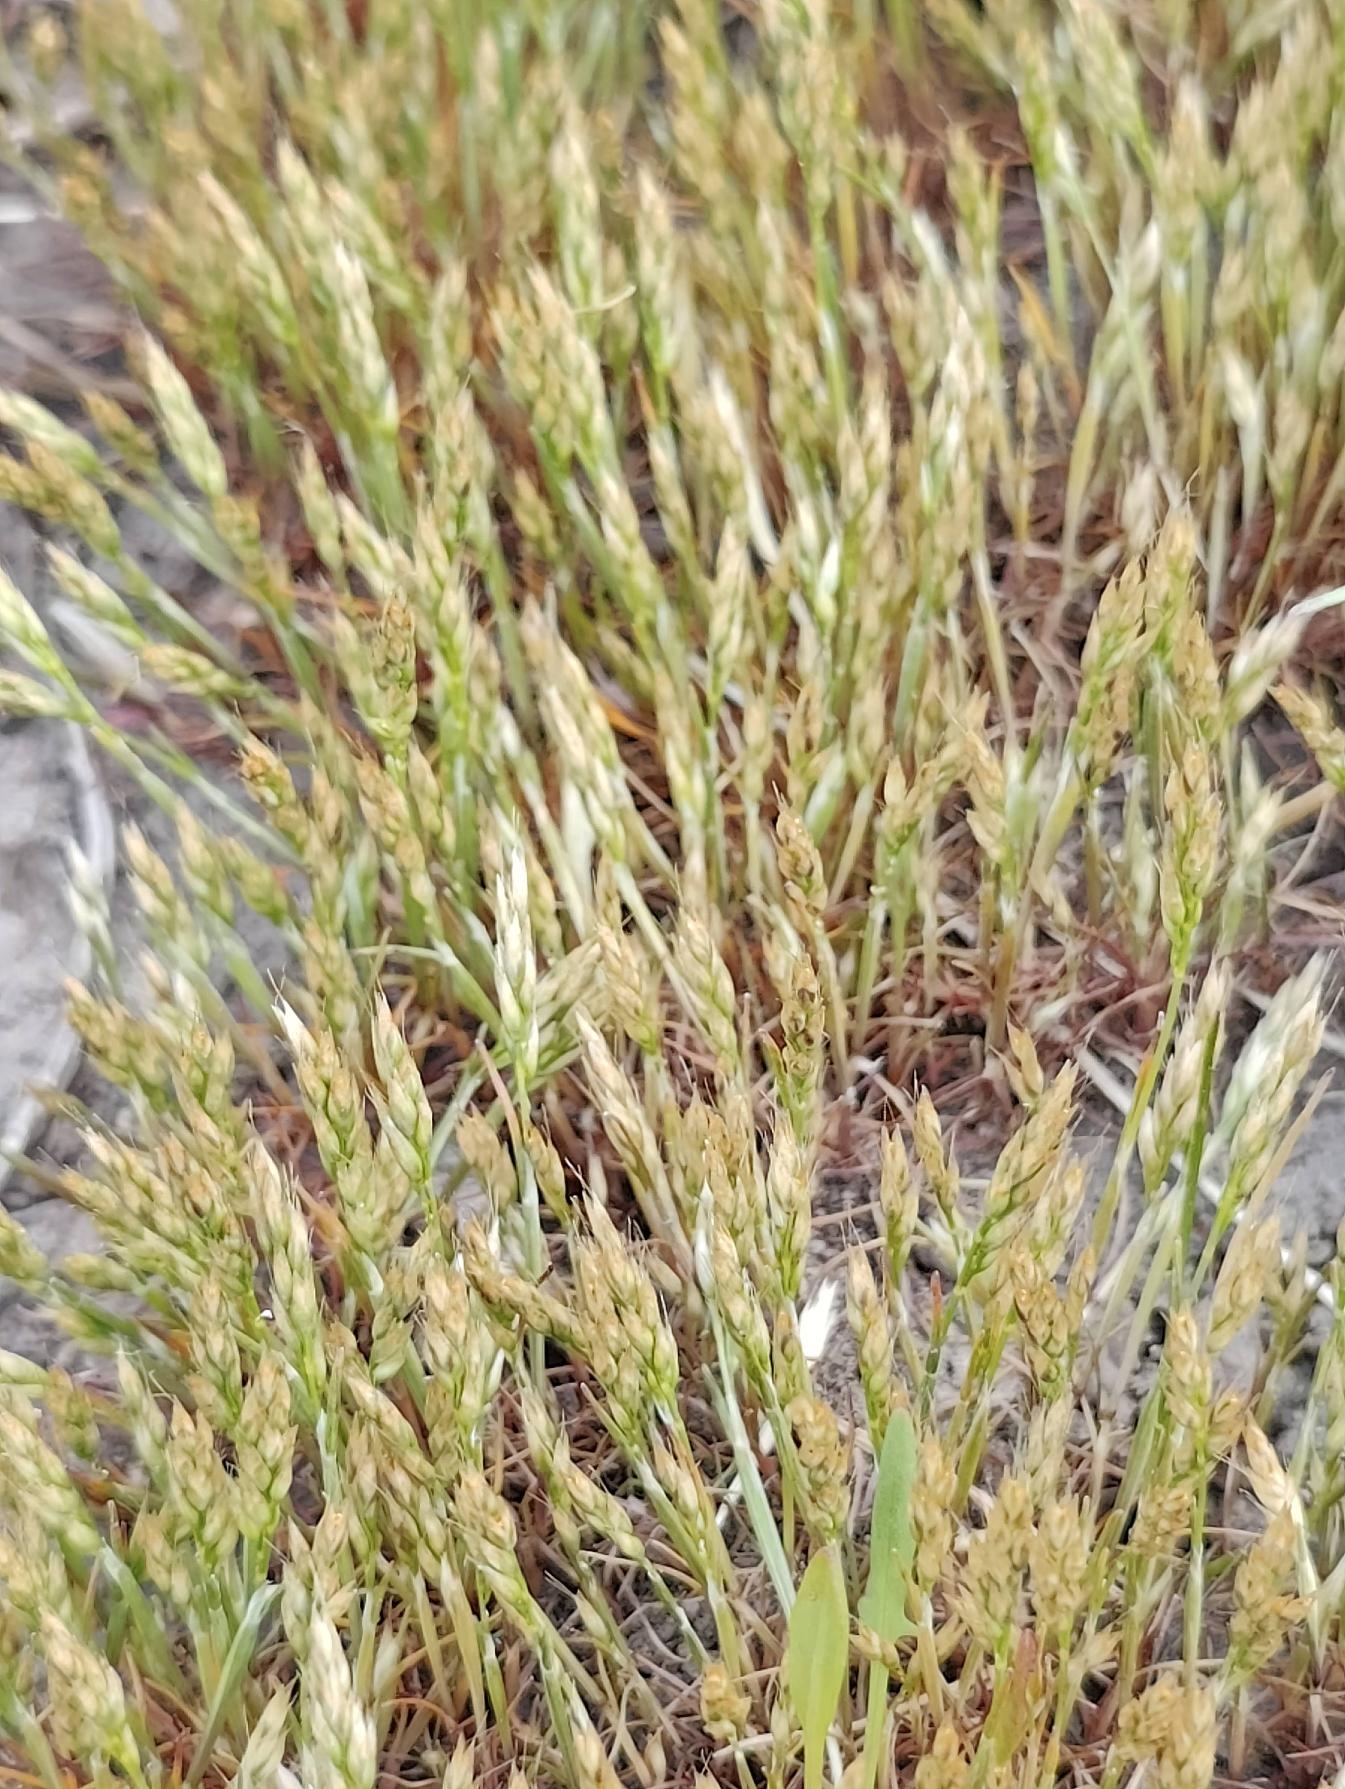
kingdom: Plantae
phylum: Tracheophyta
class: Liliopsida
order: Poales
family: Poaceae
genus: Aira
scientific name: Aira praecox
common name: Tidlig dværgbunke
